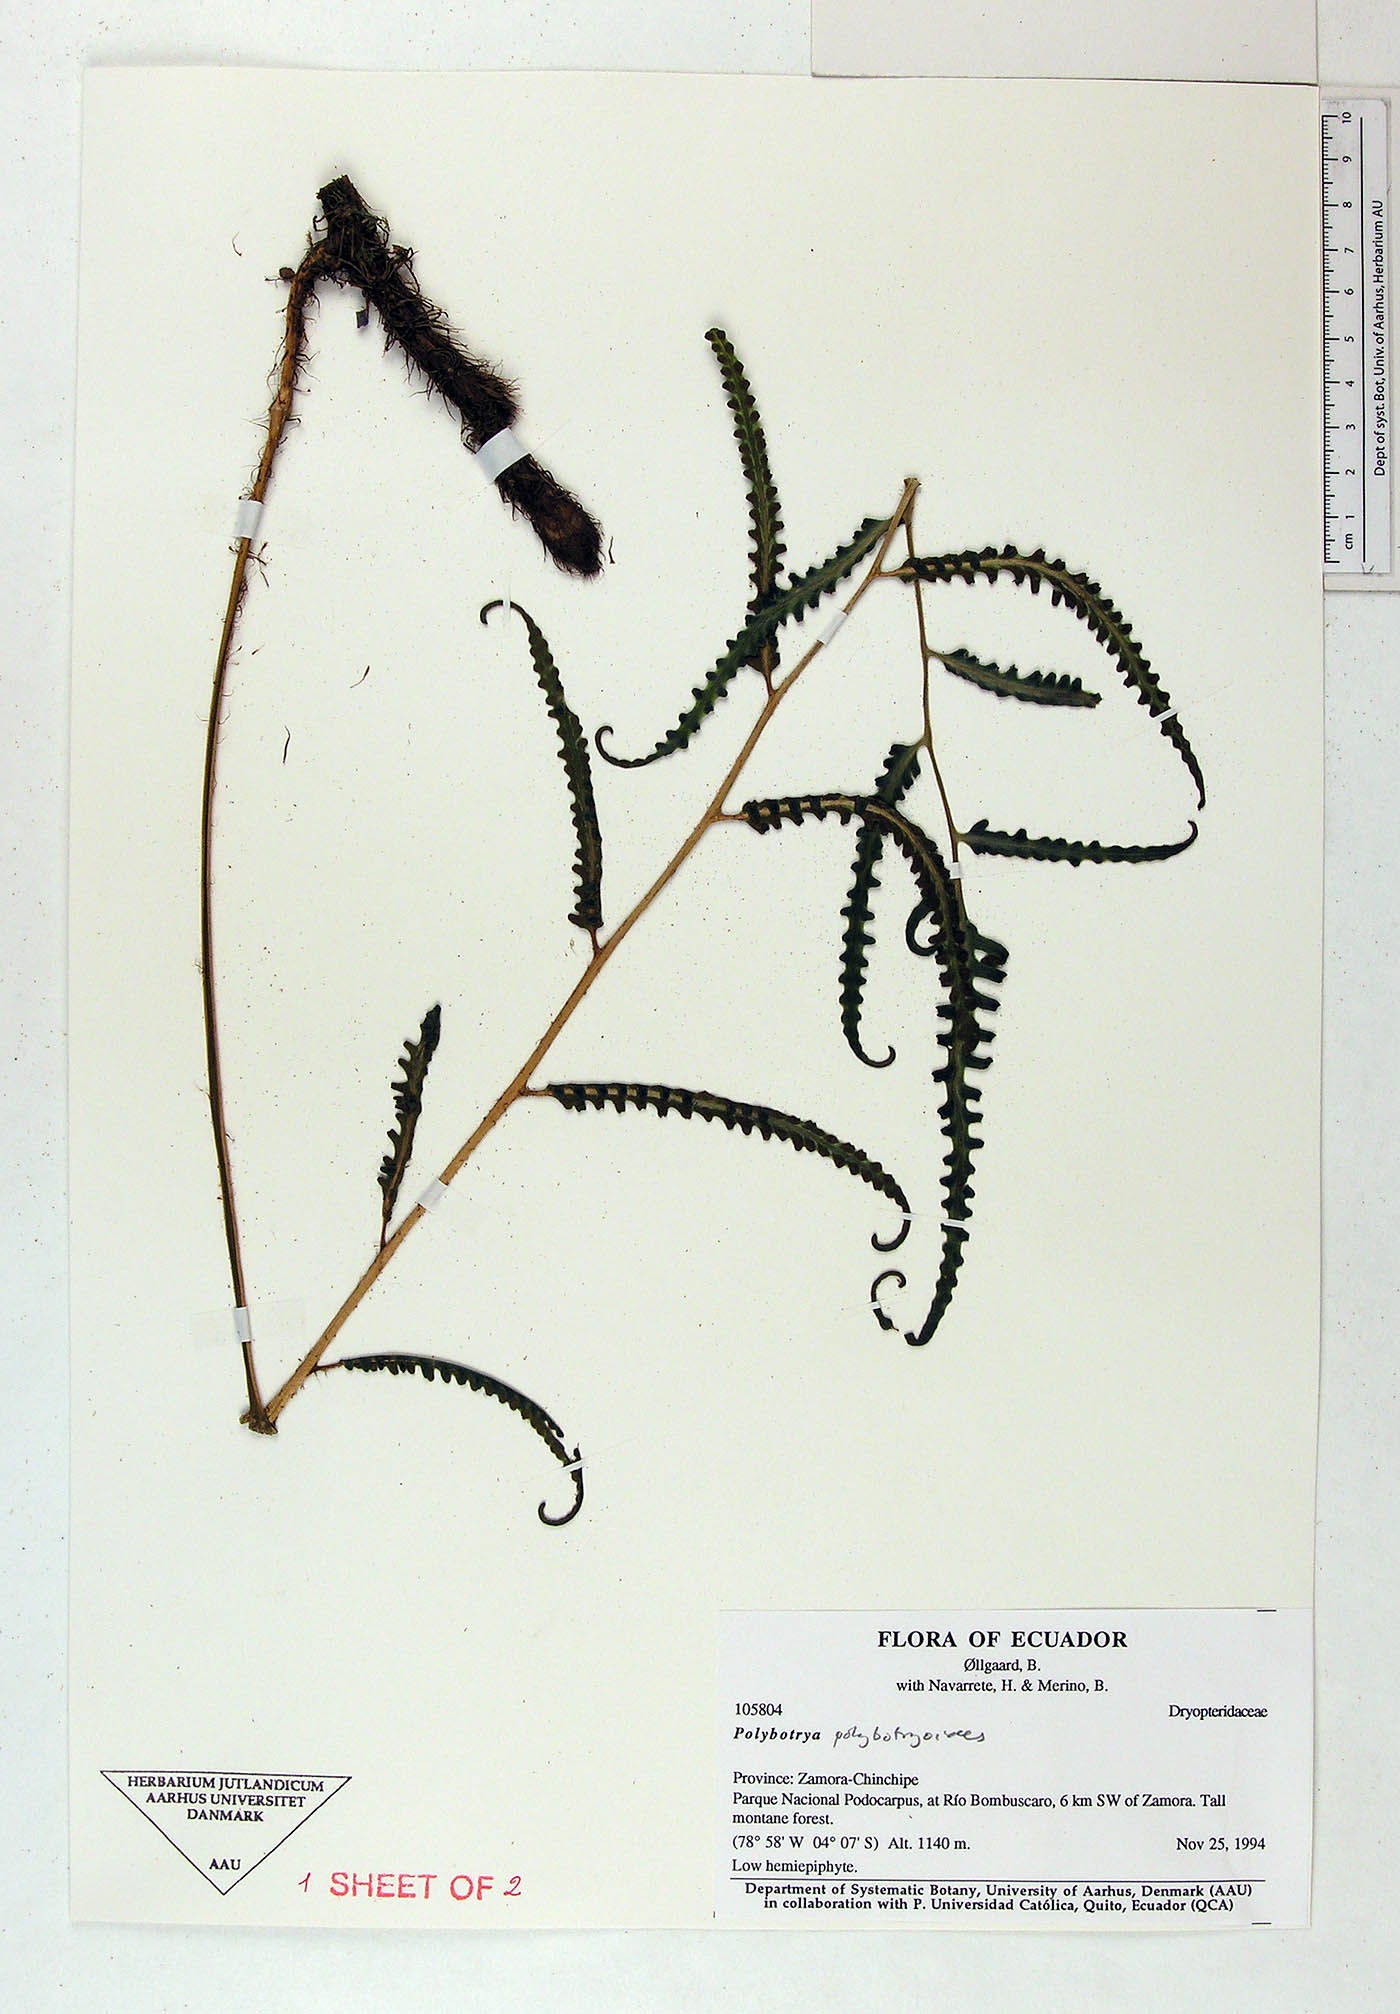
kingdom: Plantae
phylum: Tracheophyta
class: Polypodiopsida
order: Polypodiales
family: Dryopteridaceae
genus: Polybotrya
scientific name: Polybotrya polybotryoides
